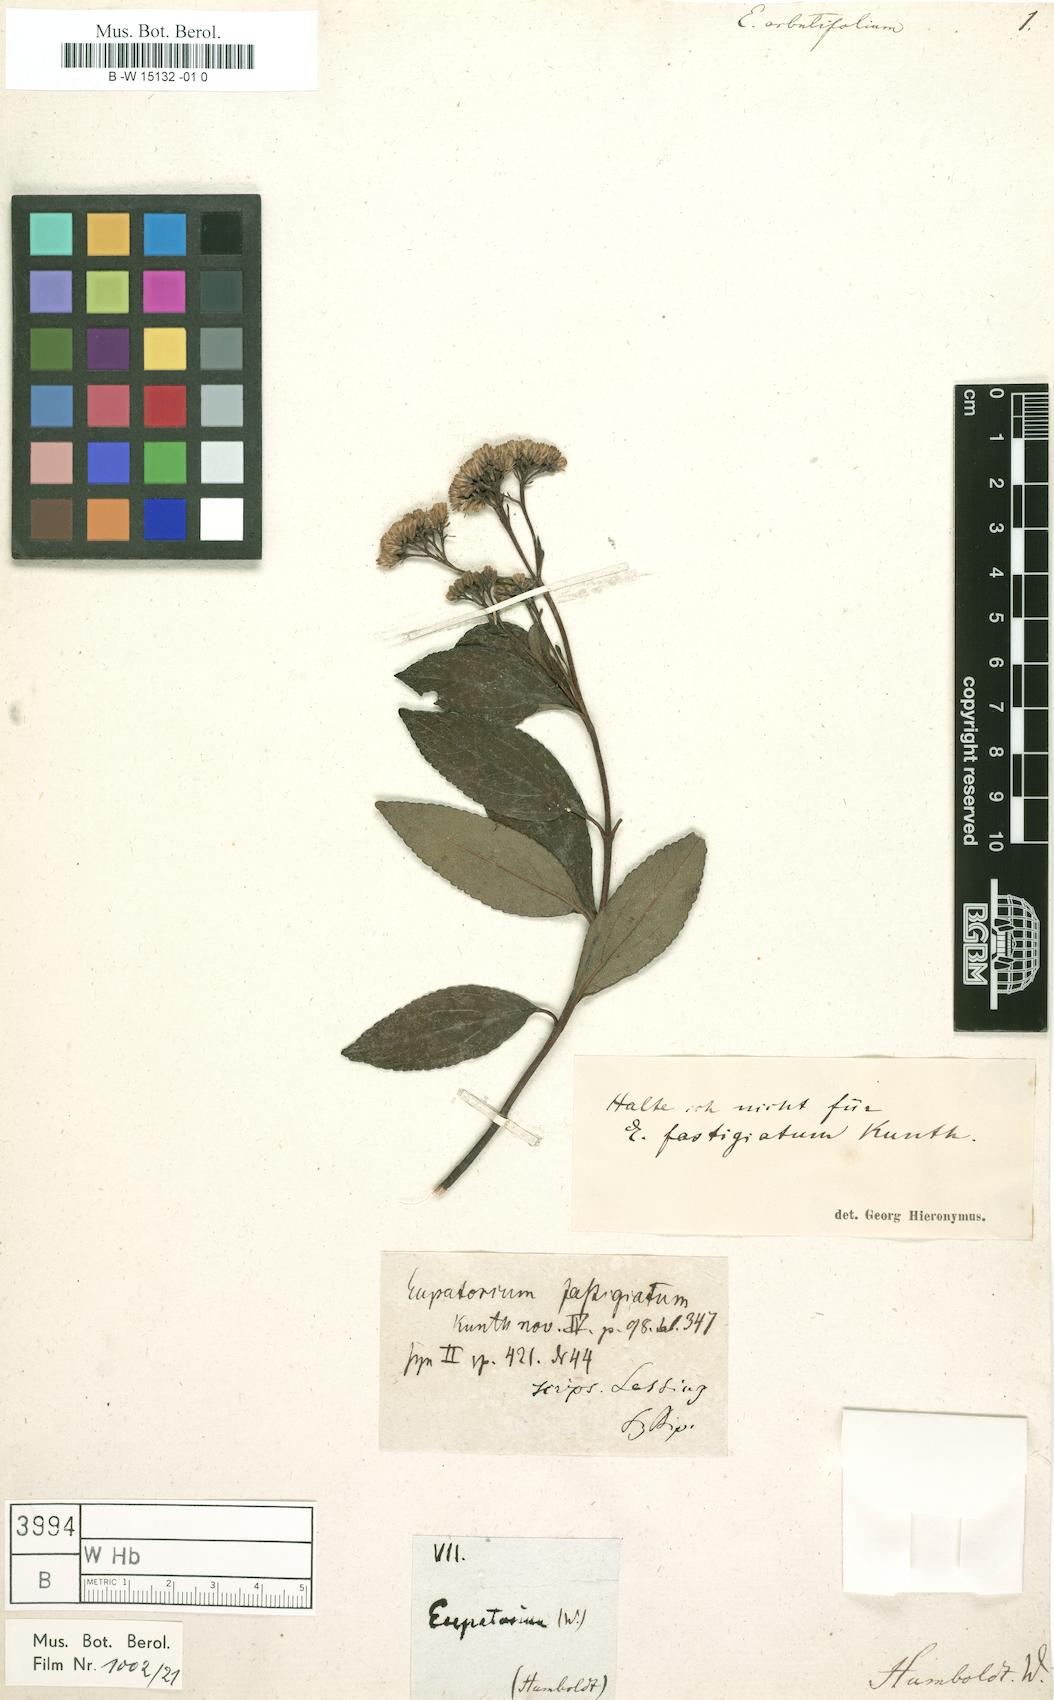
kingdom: Plantae
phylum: Tracheophyta
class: Magnoliopsida
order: Asterales
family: Asteraceae
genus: Ageratina
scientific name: Ageratina arbutifolia
